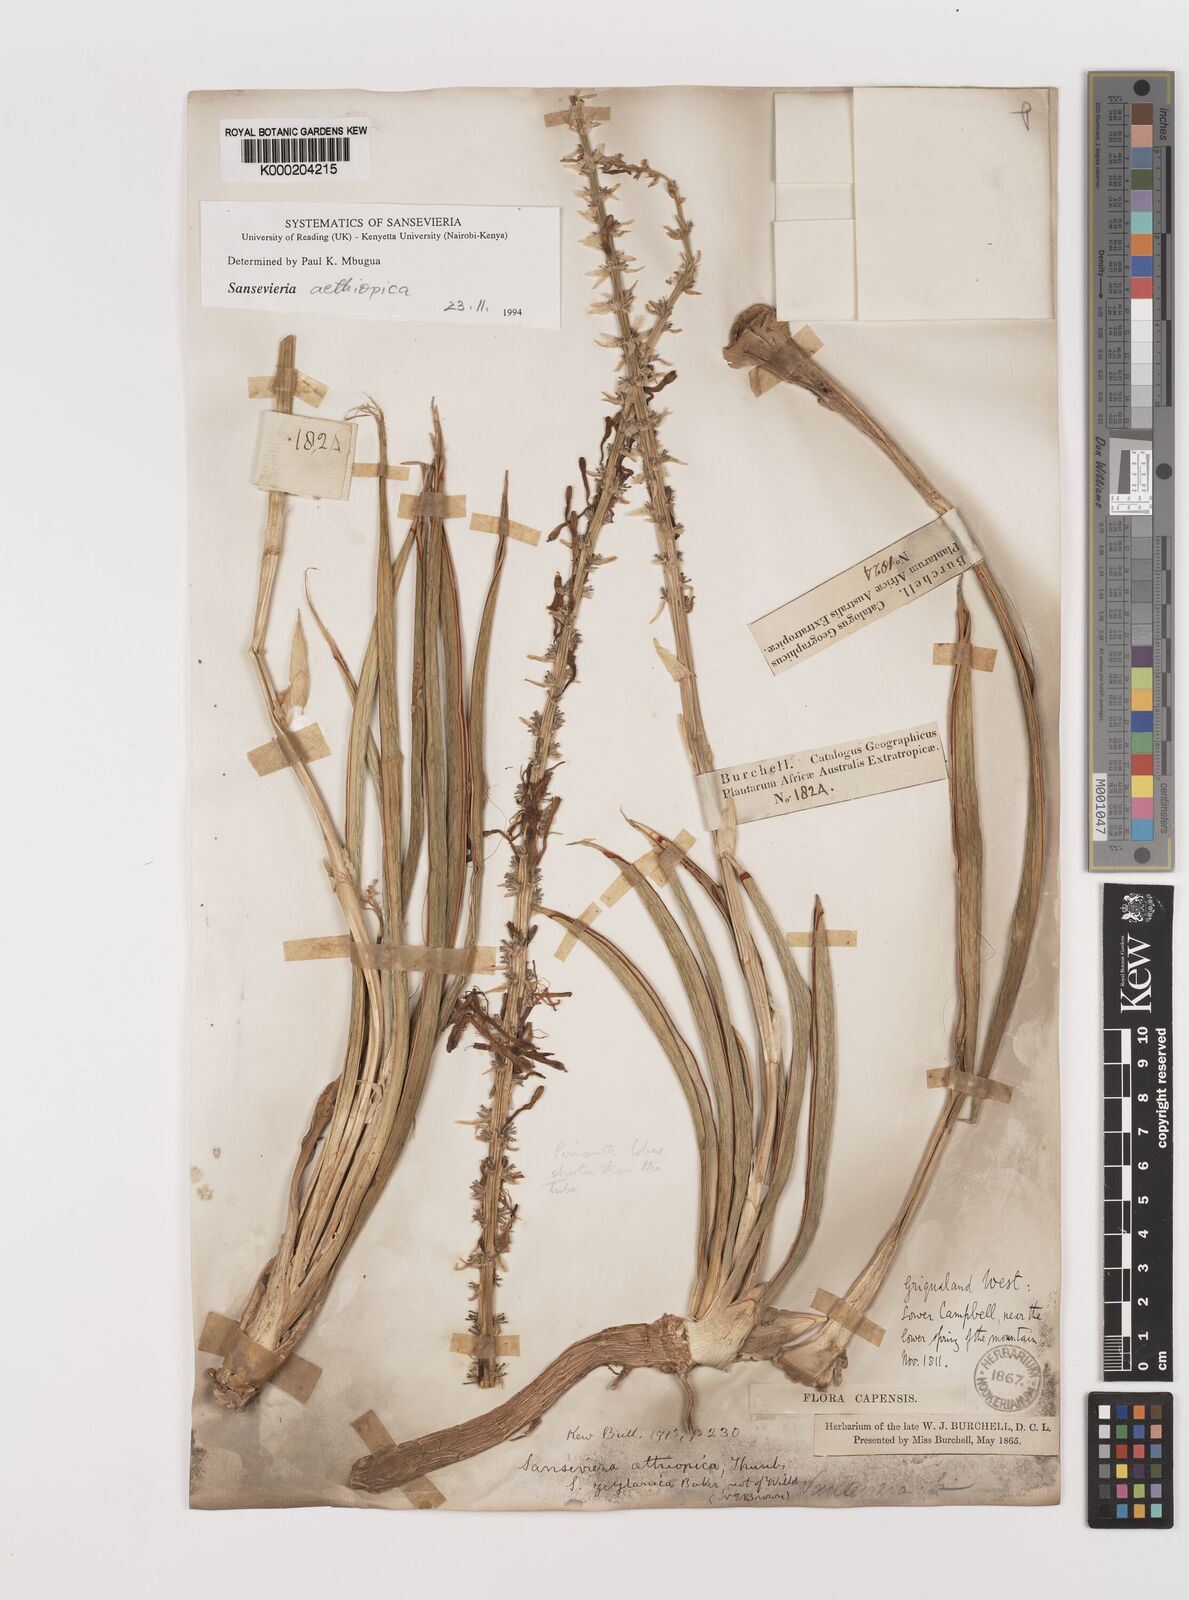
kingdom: Plantae
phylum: Tracheophyta
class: Liliopsida
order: Asparagales
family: Asparagaceae
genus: Dracaena
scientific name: Dracaena aethiopica
